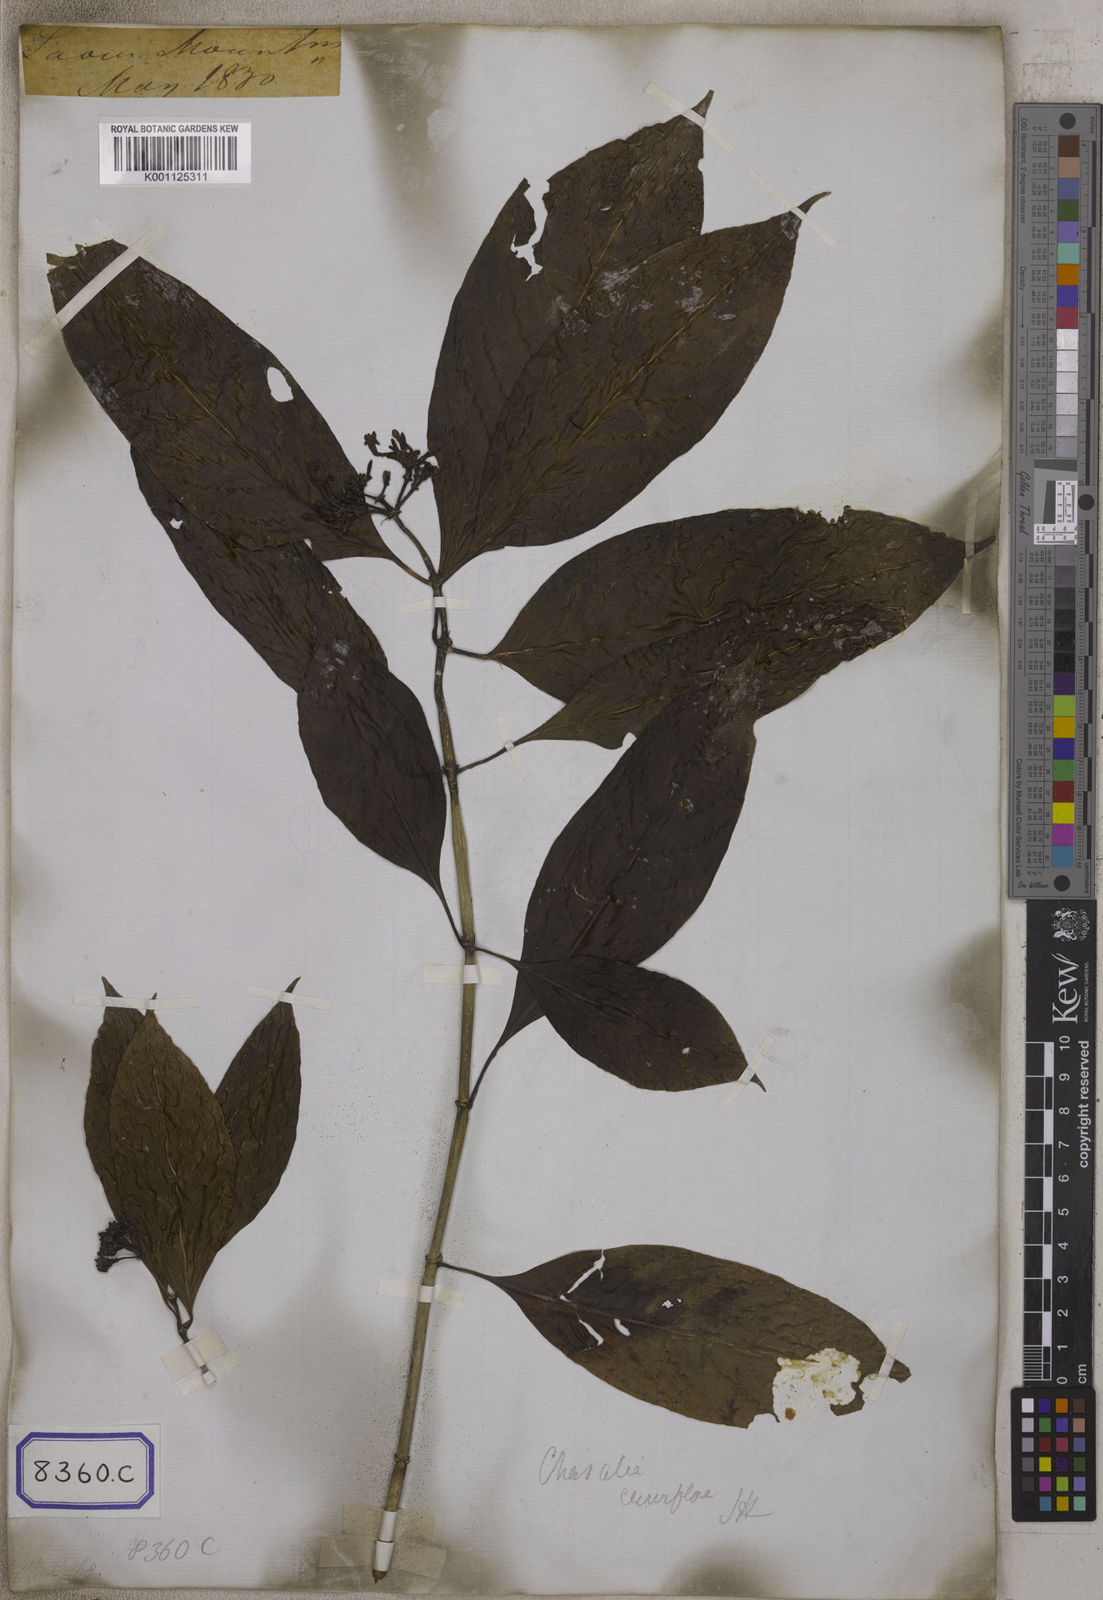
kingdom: Plantae
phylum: Tracheophyta
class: Magnoliopsida
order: Gentianales
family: Rubiaceae
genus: Chassalia
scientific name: Chassalia curviflora
